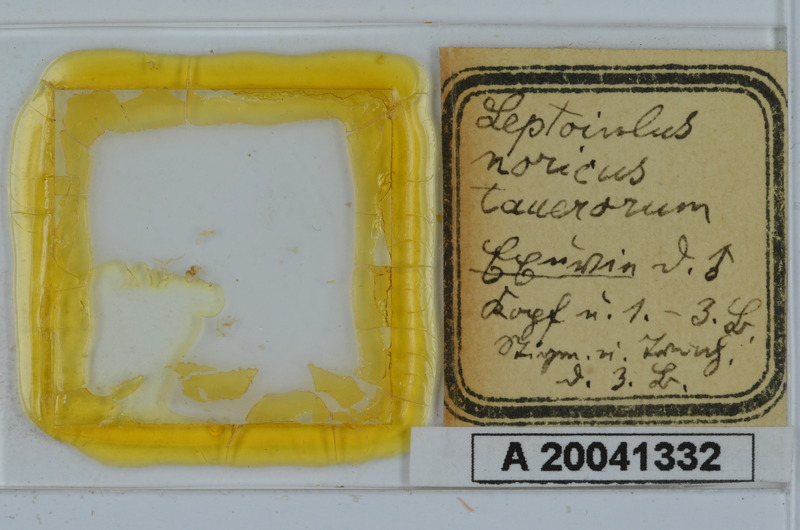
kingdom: Animalia
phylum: Arthropoda
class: Diplopoda
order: Julida
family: Julidae
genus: Leptoiulus
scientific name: Leptoiulus noricus
